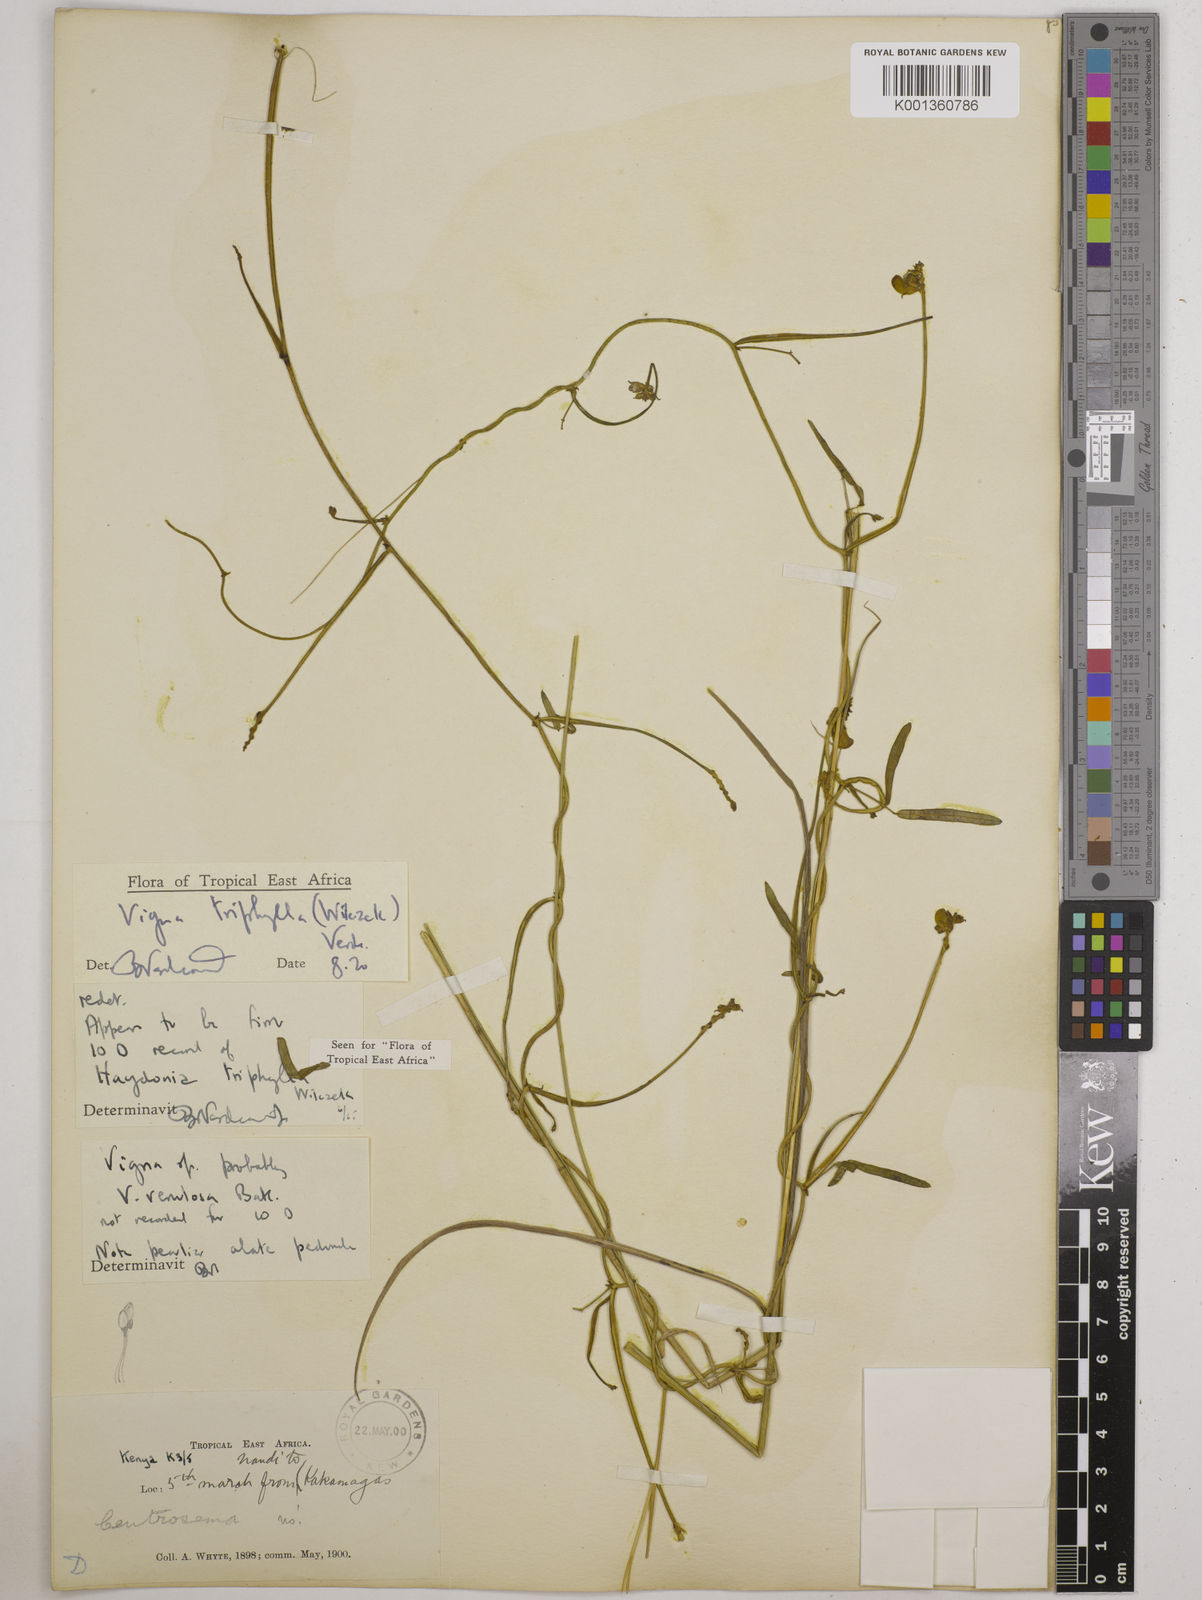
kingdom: Plantae
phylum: Tracheophyta
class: Magnoliopsida
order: Fabales
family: Fabaceae
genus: Vigna
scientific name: Vigna triphylla
